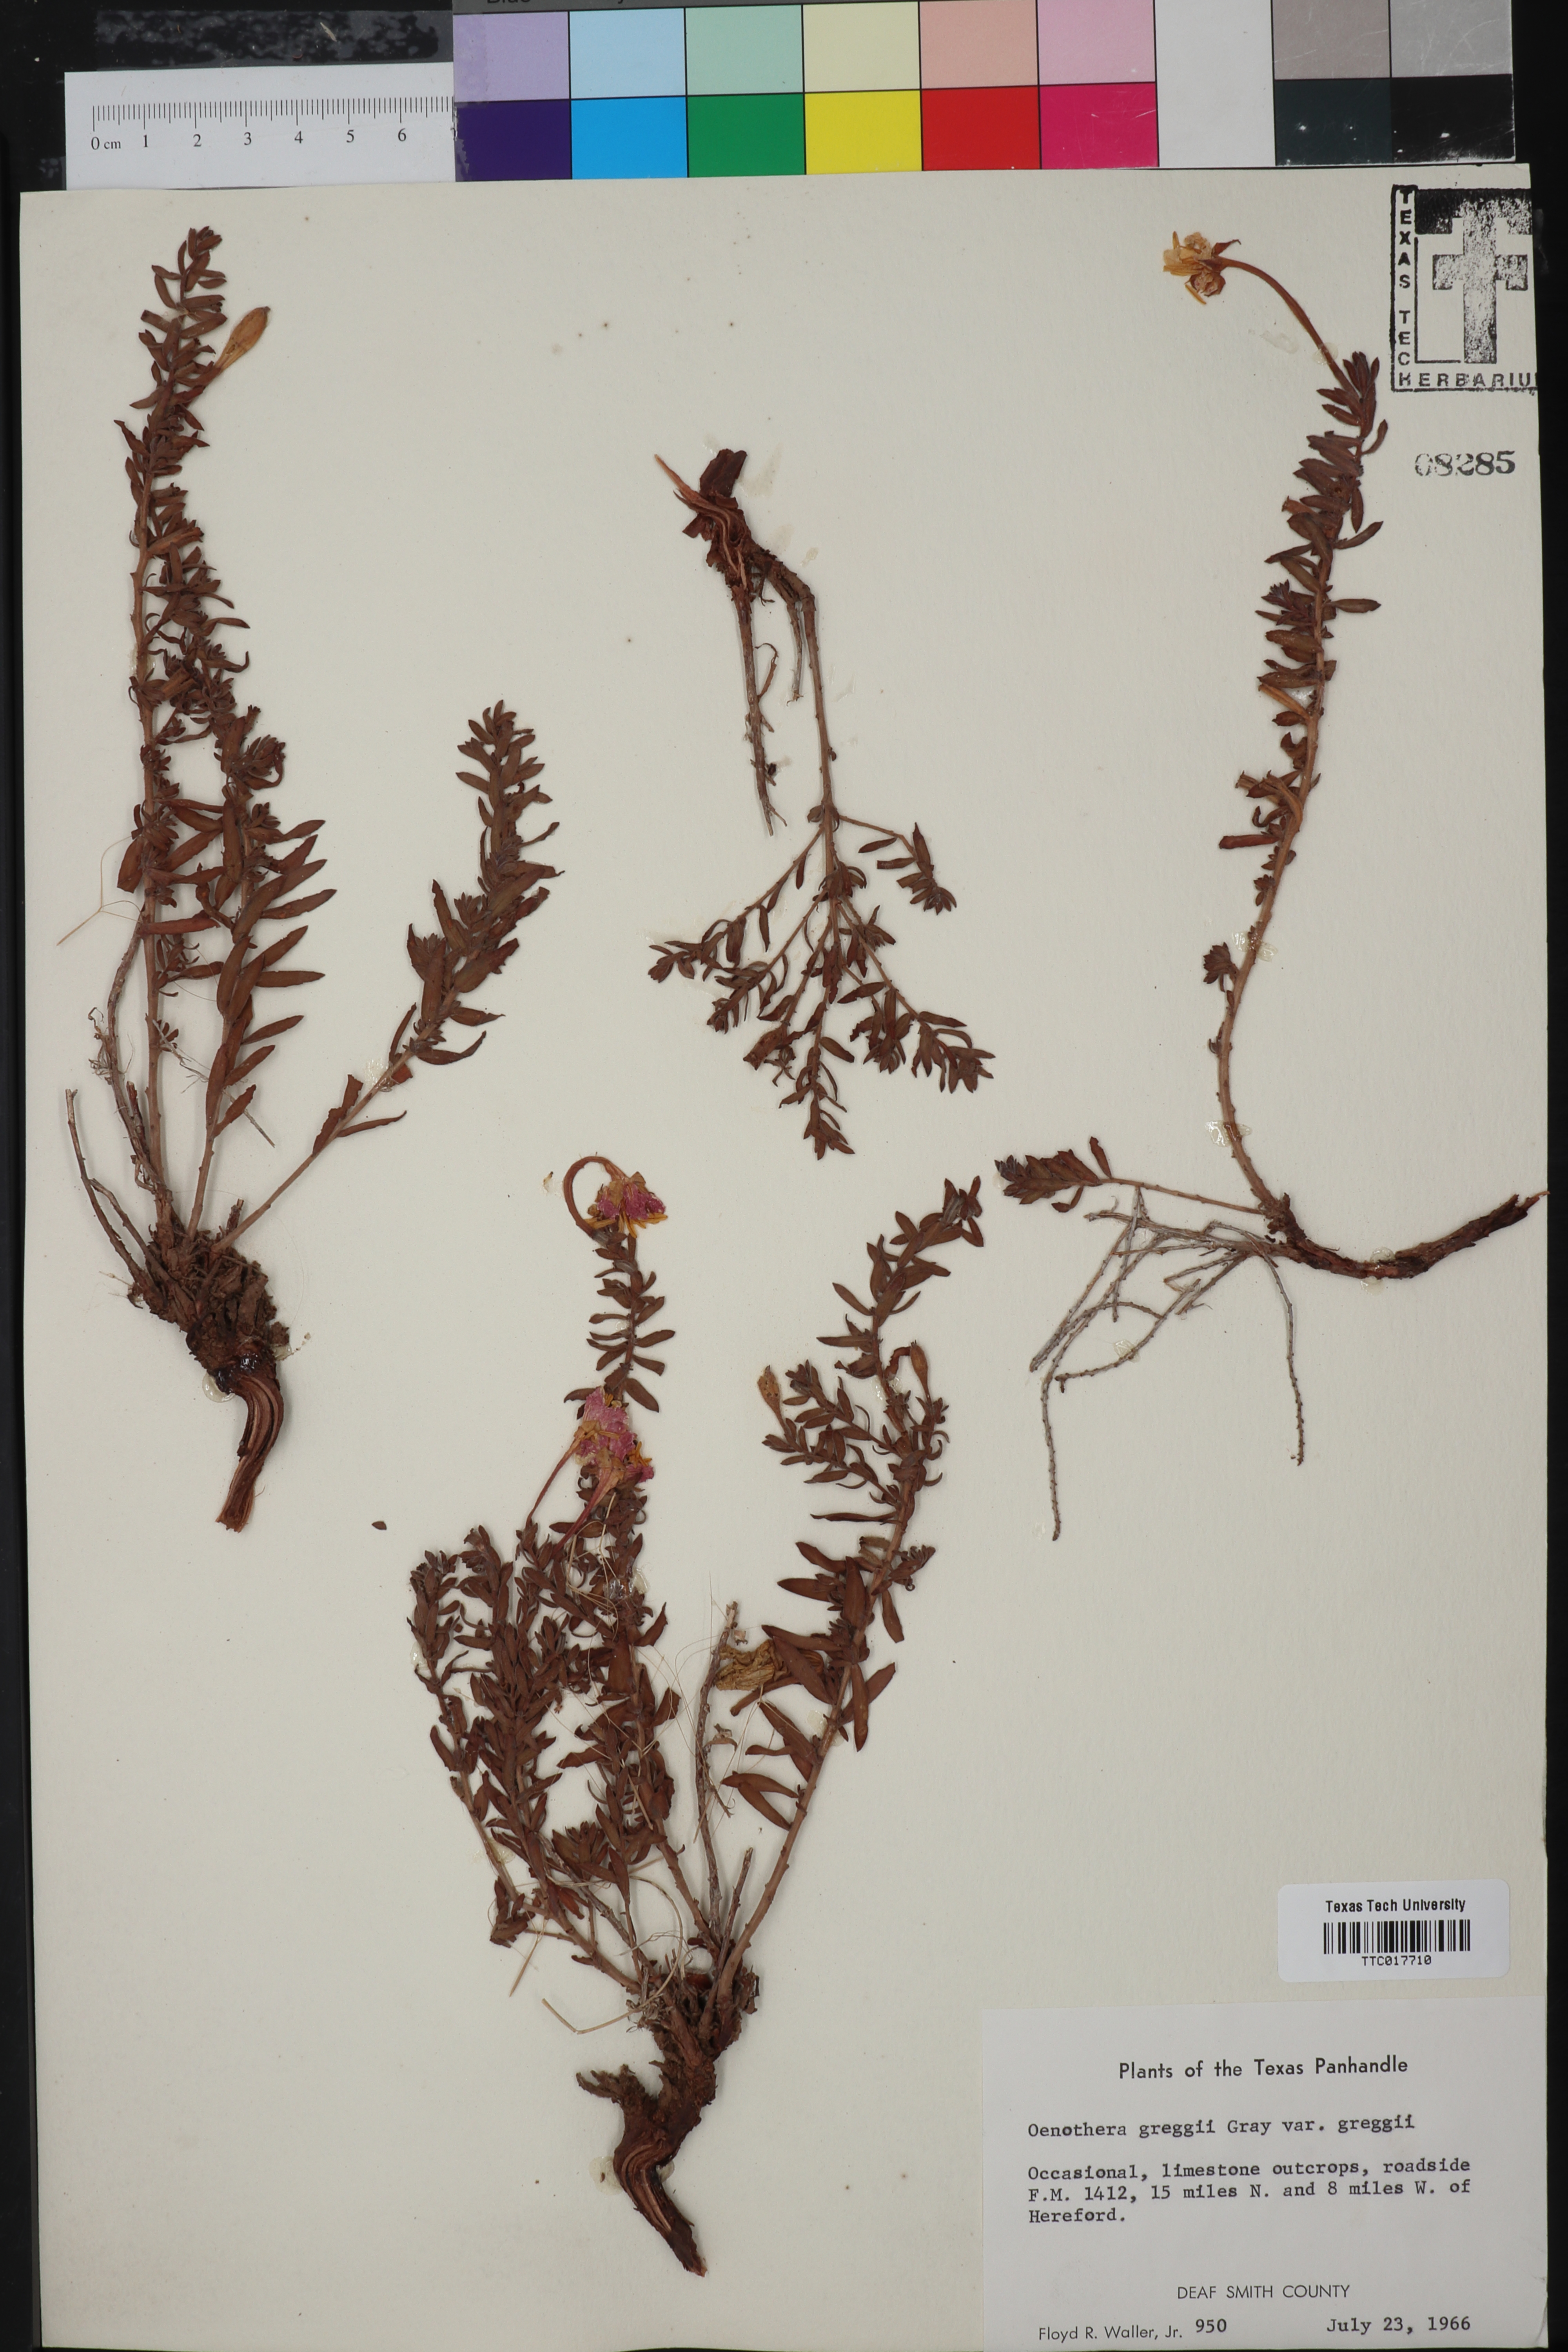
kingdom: Plantae
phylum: Tracheophyta
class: Magnoliopsida
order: Myrtales
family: Onagraceae
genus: Oenothera
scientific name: Oenothera hartwegii
